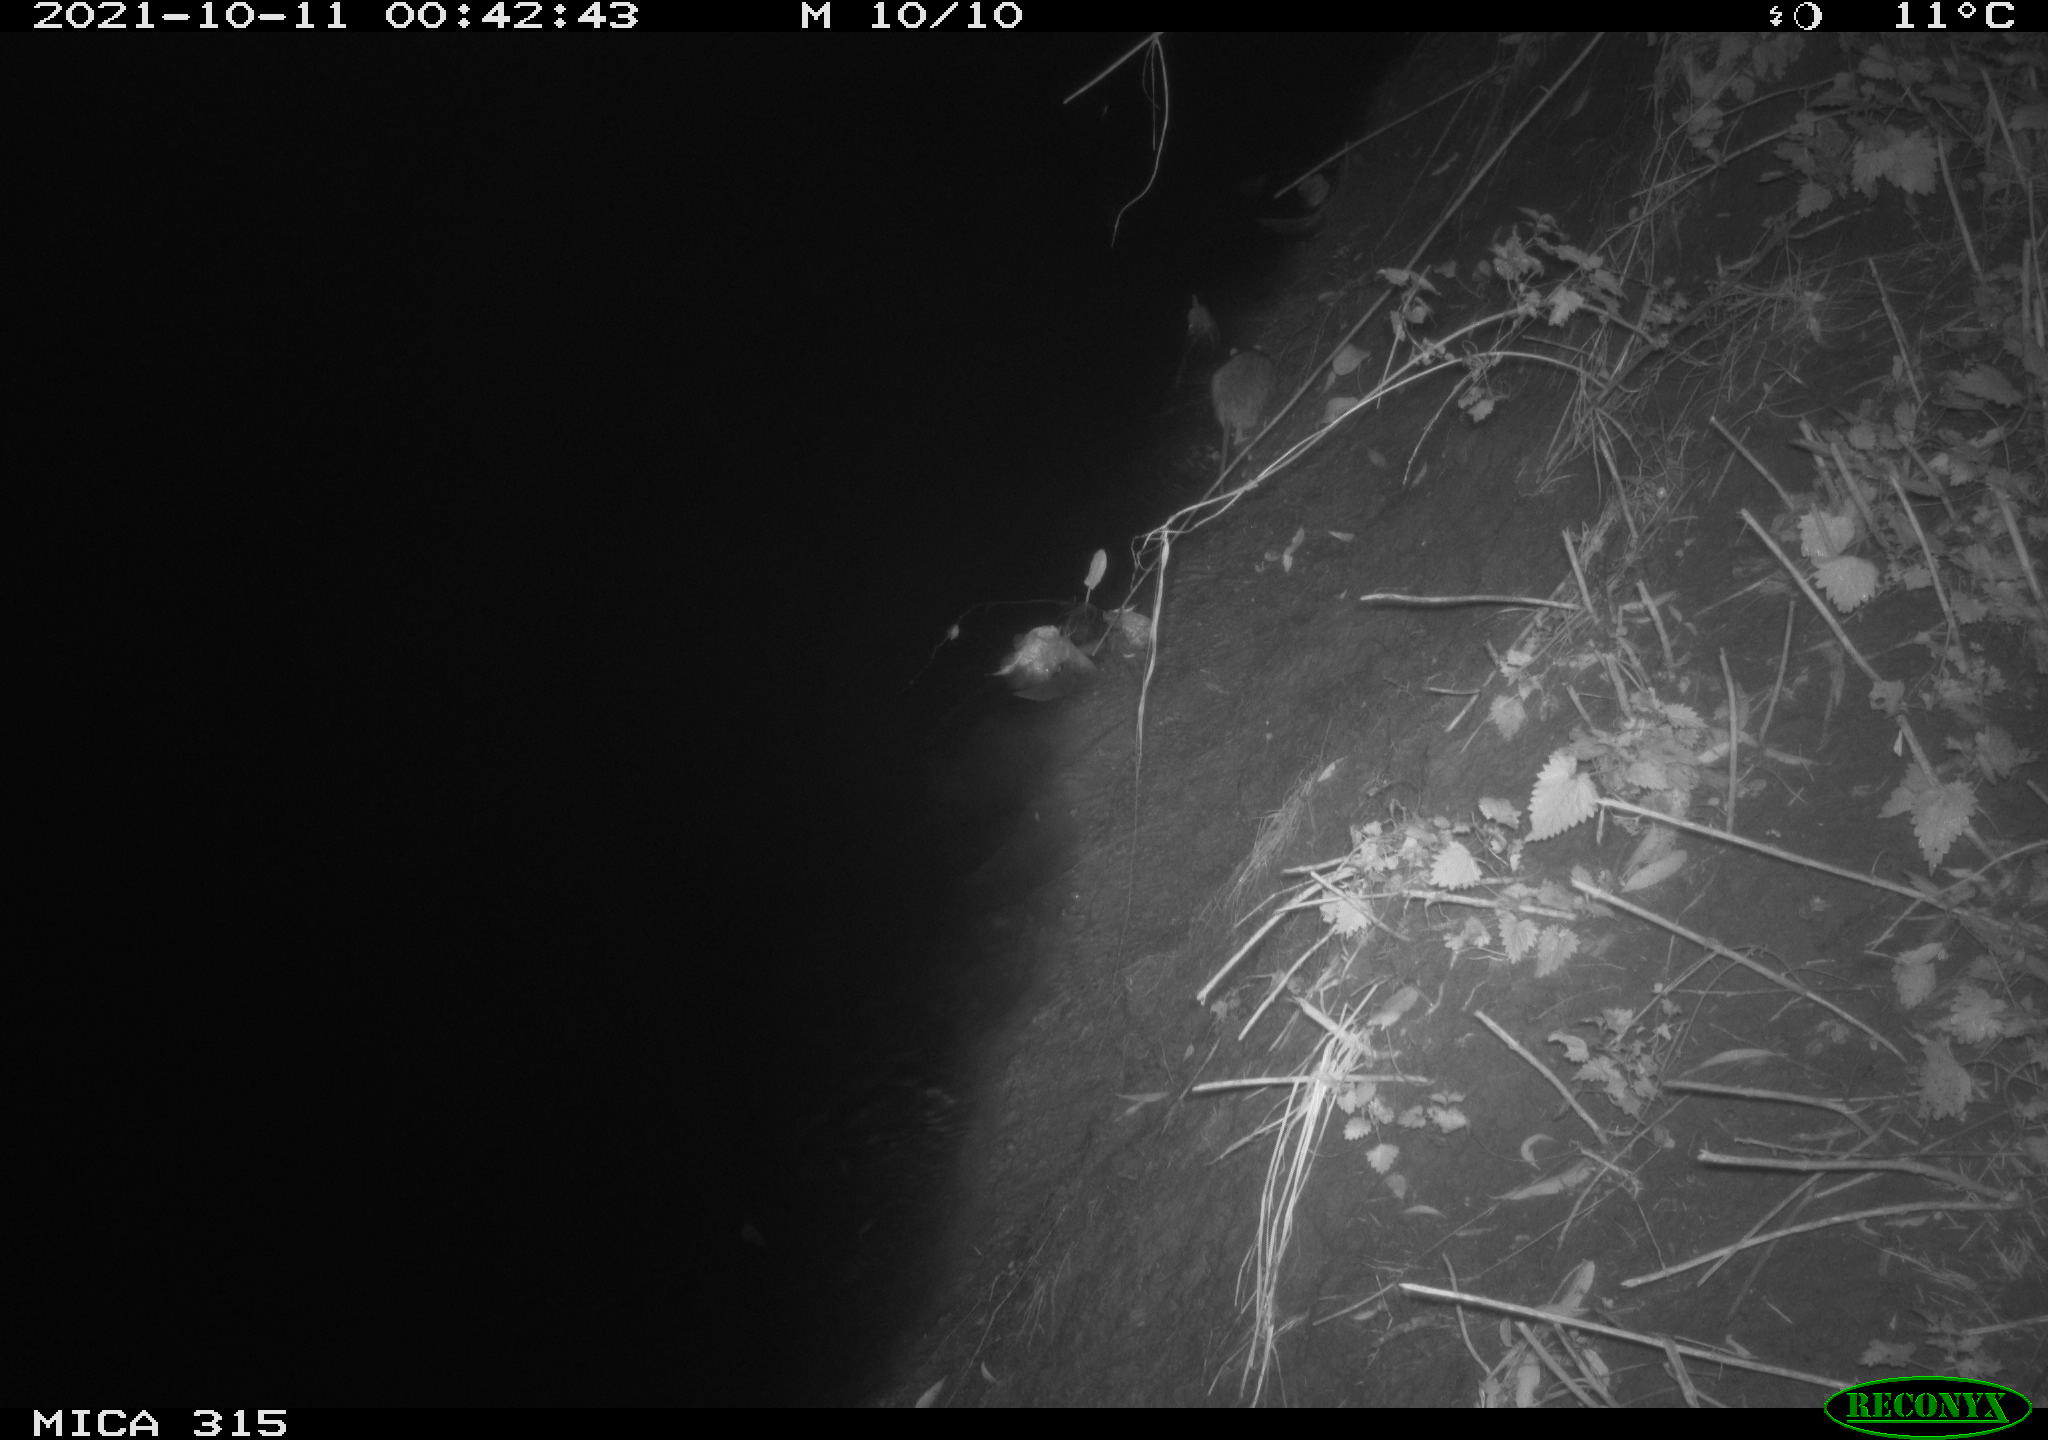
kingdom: Animalia
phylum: Chordata
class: Mammalia
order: Rodentia
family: Muridae
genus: Rattus
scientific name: Rattus norvegicus
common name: Brown rat
